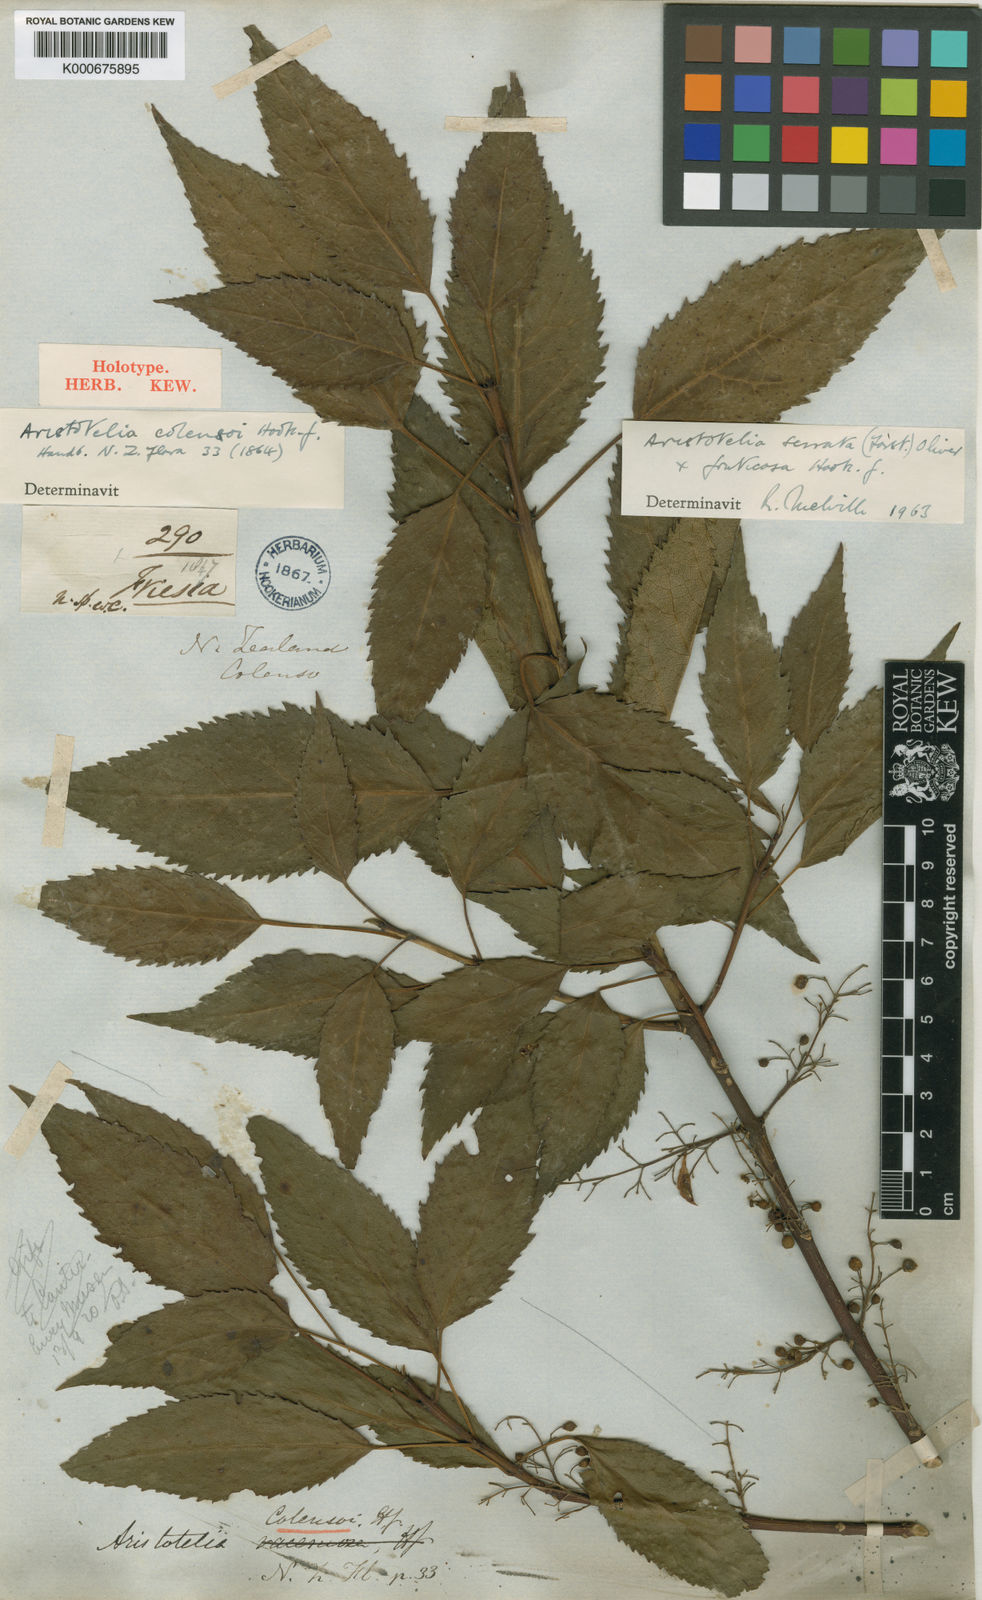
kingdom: Plantae
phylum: Tracheophyta
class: Magnoliopsida
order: Oxalidales
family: Elaeocarpaceae
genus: Aristotelia
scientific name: Aristotelia colensoi
